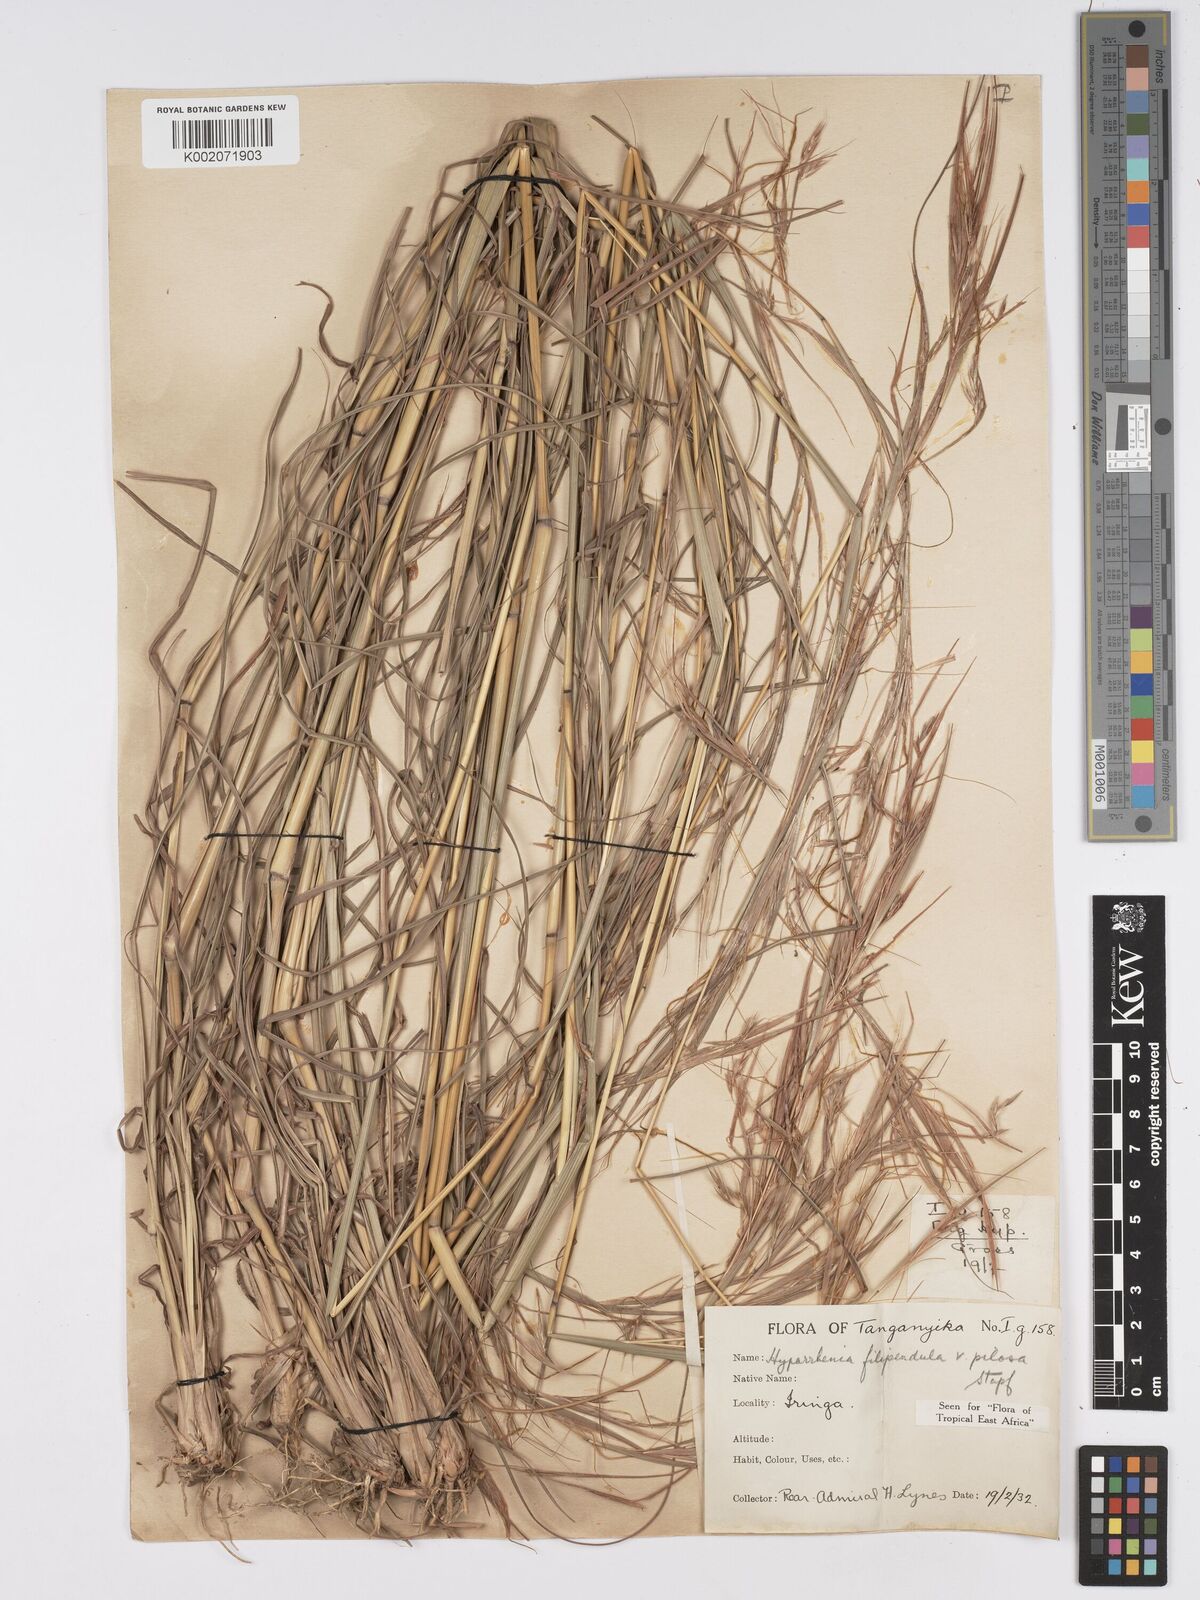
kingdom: Plantae
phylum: Tracheophyta
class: Liliopsida
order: Poales
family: Poaceae
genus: Hyparrhenia
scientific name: Hyparrhenia filipendula
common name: Tambookie grass
